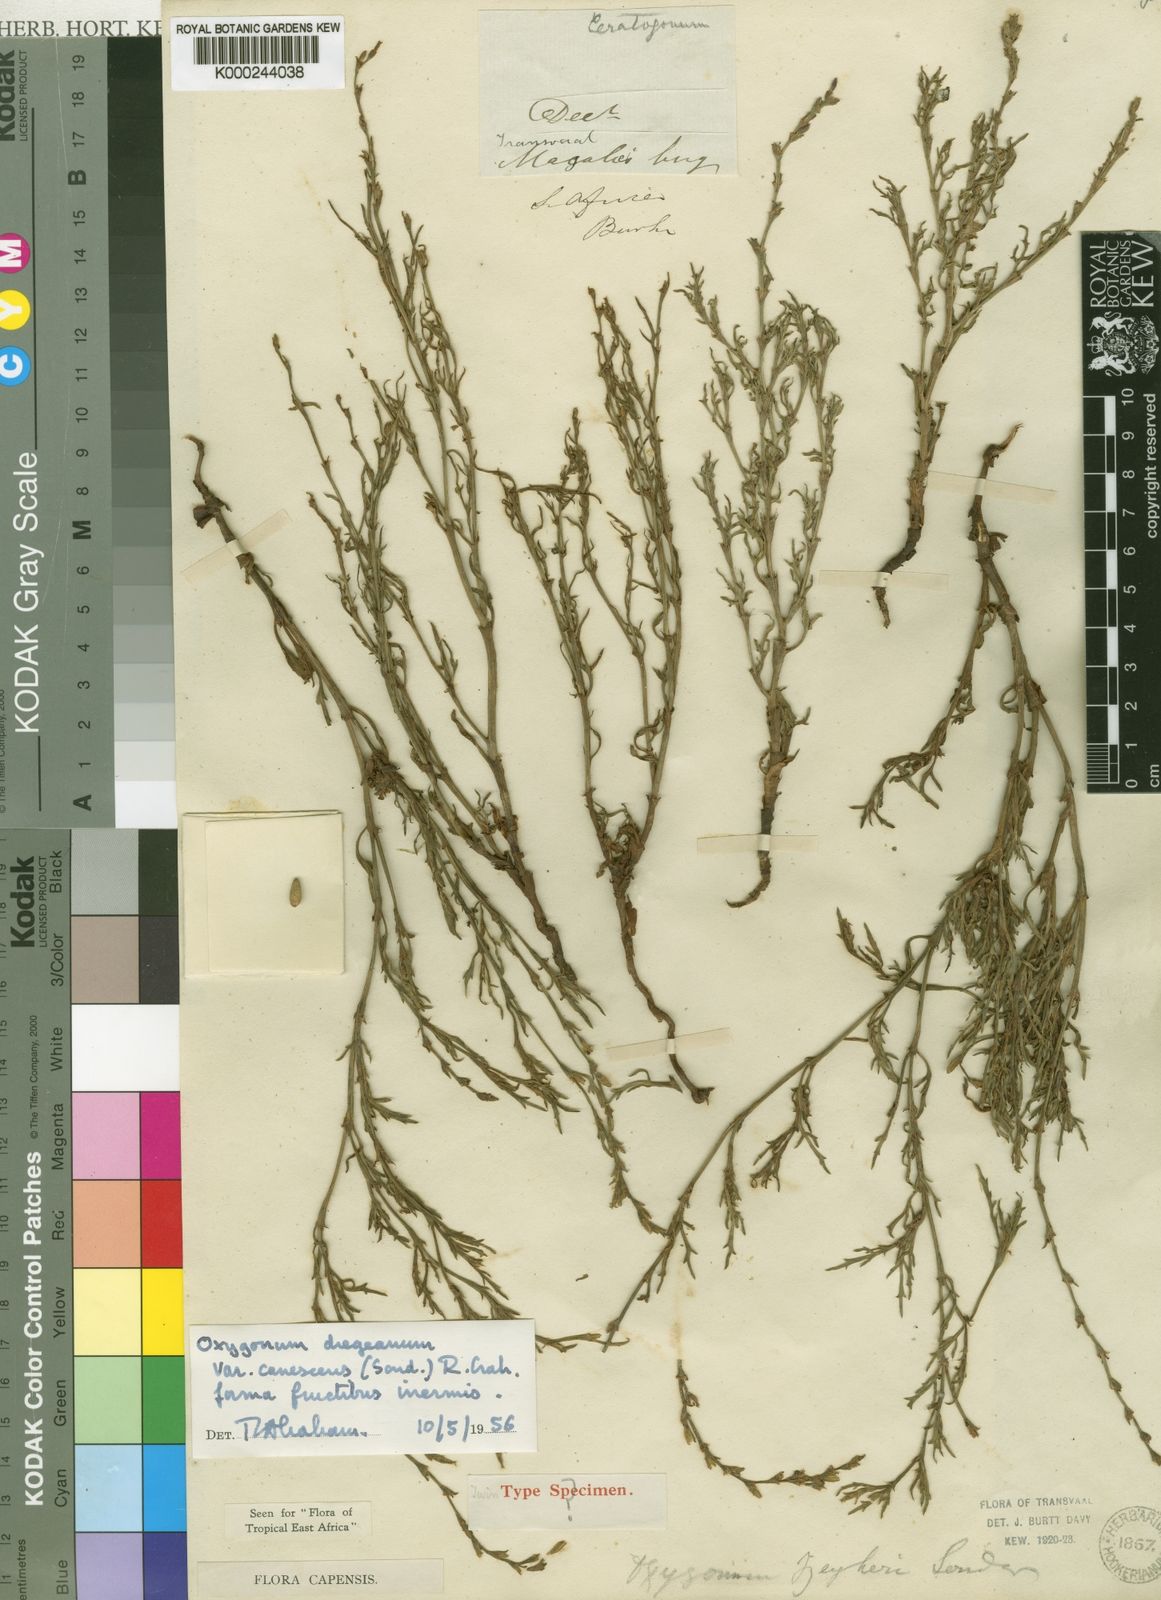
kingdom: Plantae
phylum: Tracheophyta
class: Magnoliopsida
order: Caryophyllales
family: Polygonaceae
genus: Oxygonum
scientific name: Oxygonum dregeanum
